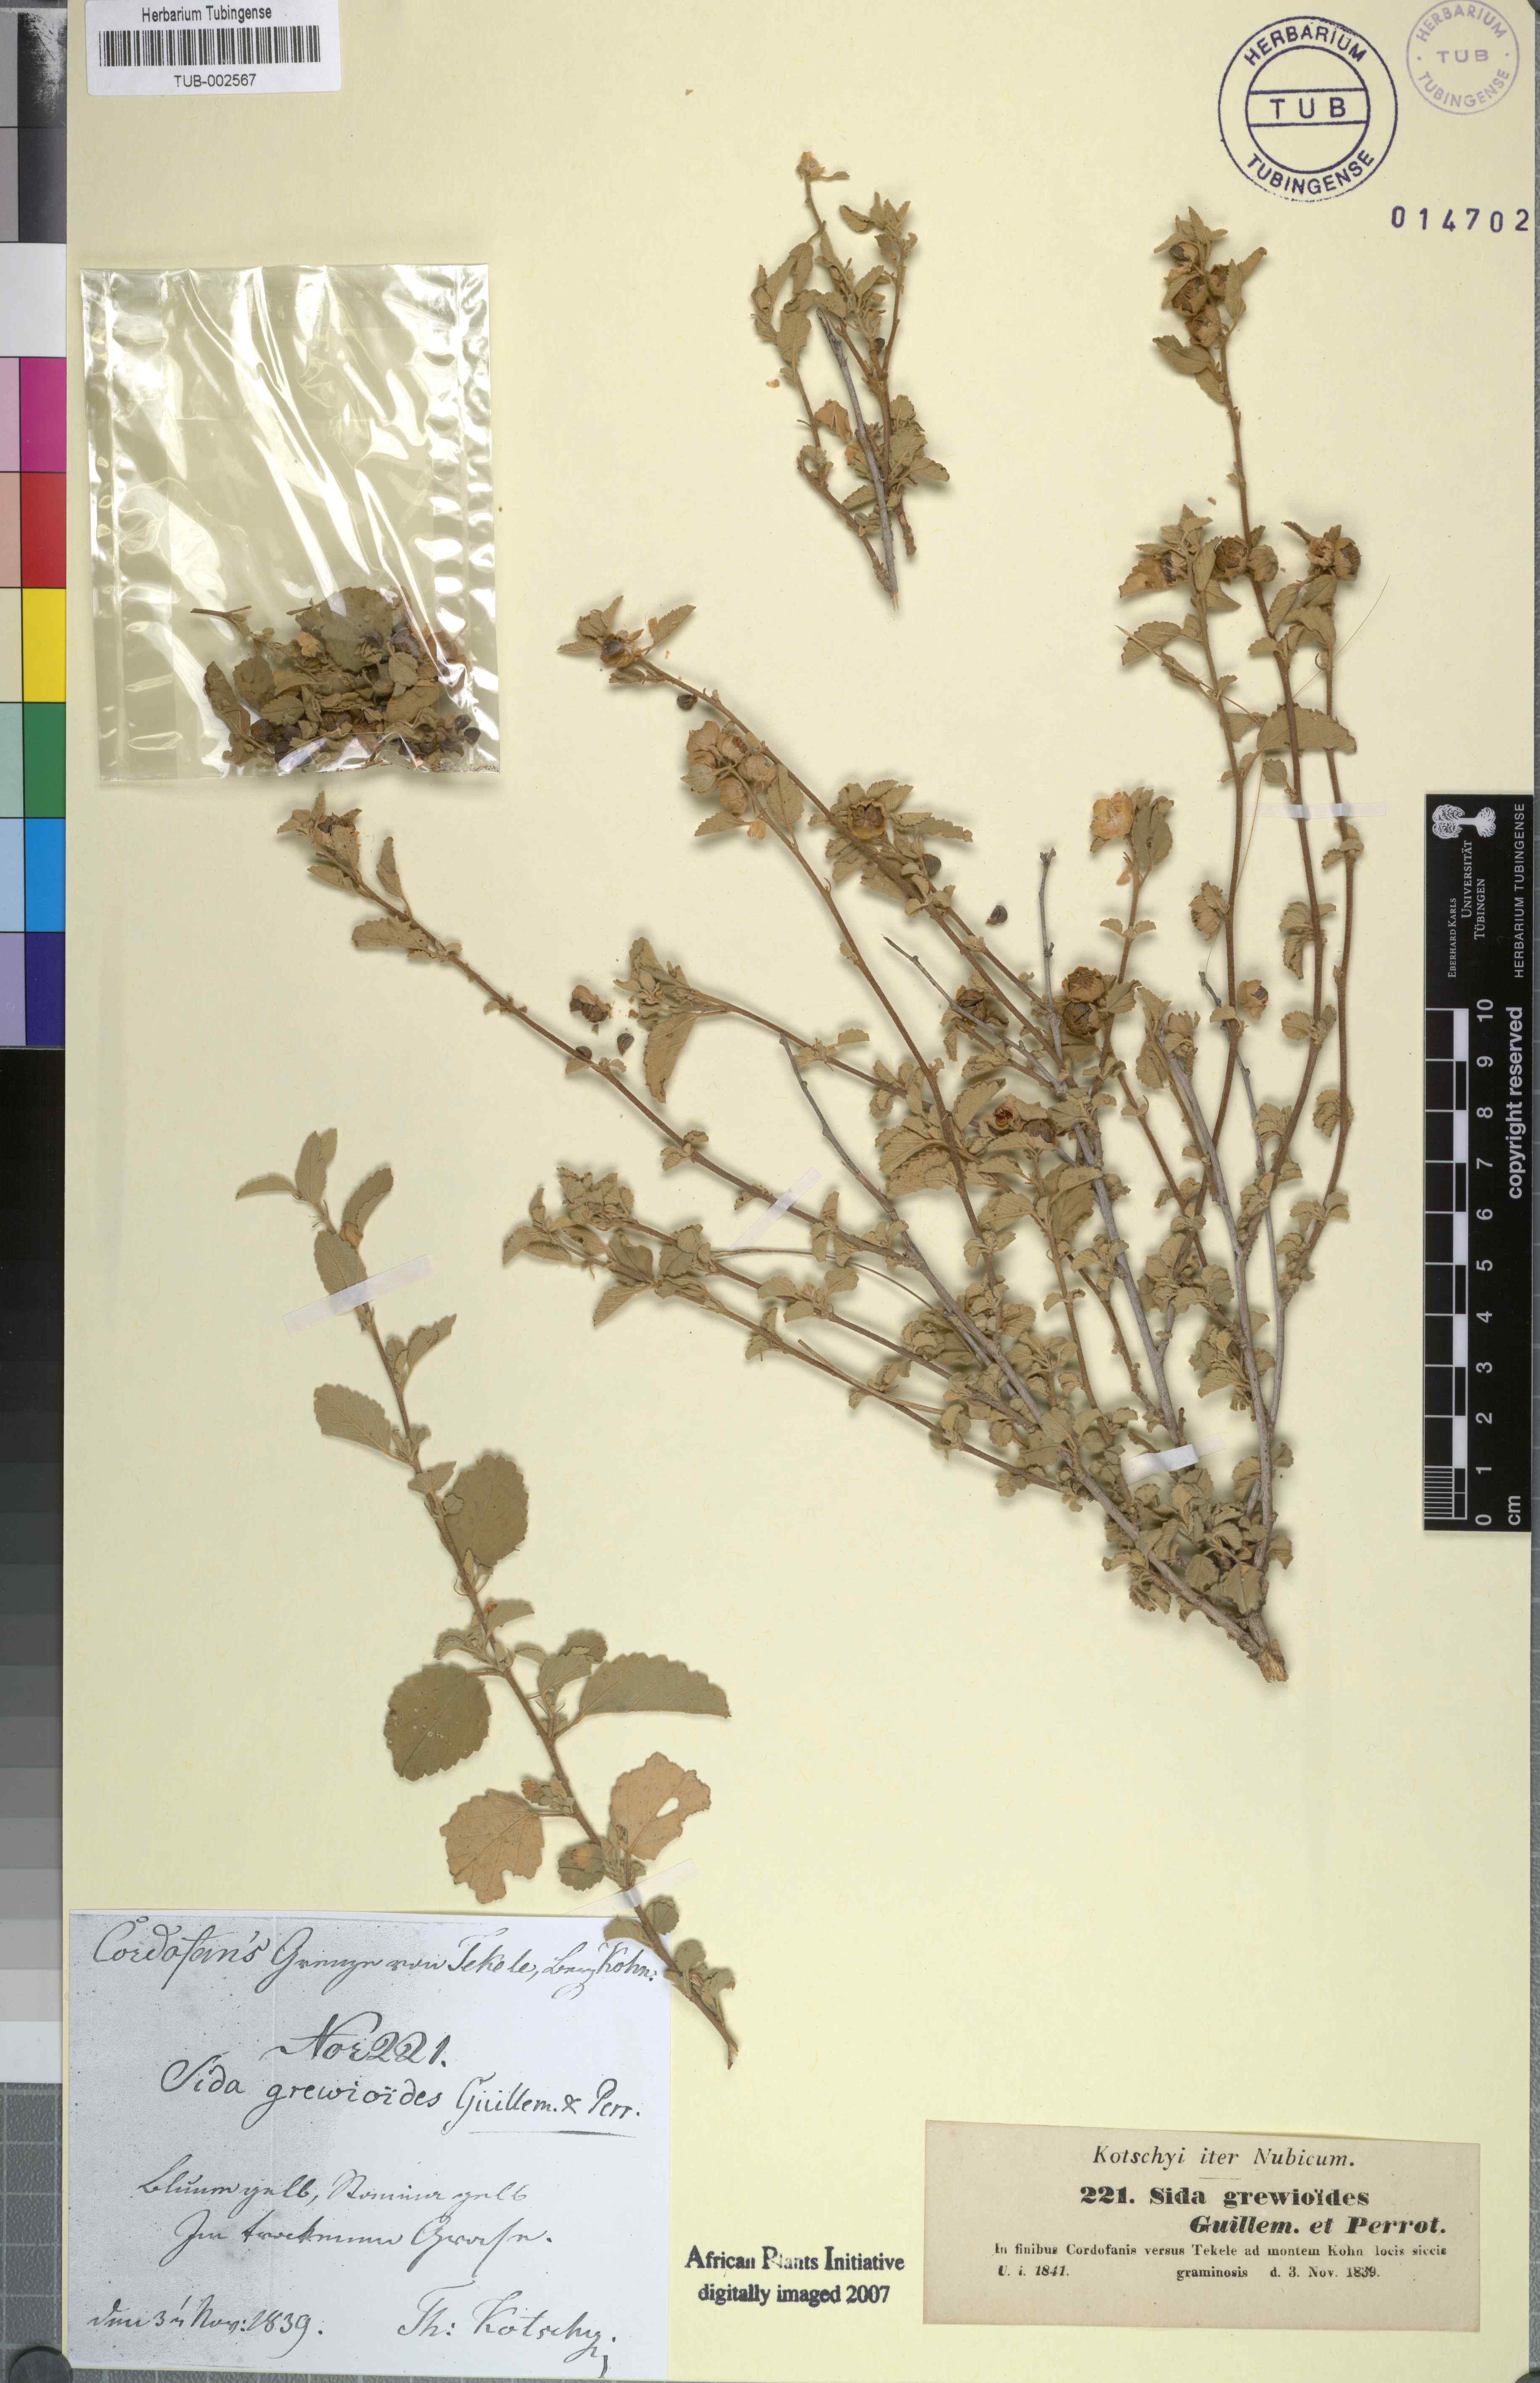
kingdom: Plantae
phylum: Tracheophyta
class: Magnoliopsida
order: Malvales
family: Malvaceae
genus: Sida
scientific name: Sida ovata
